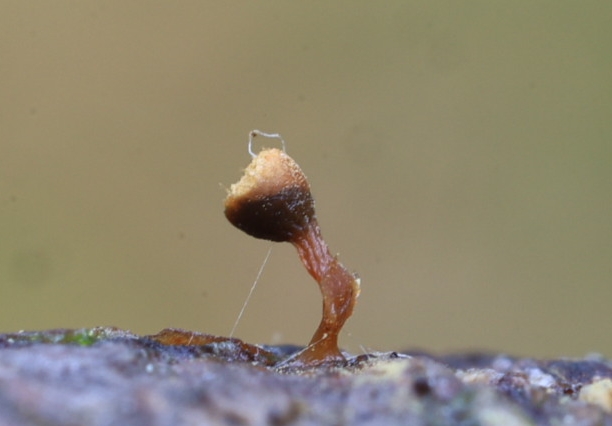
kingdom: Protozoa
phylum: Mycetozoa
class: Myxomycetes
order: Trichiales
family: Trichiaceae
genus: Trichia
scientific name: Trichia
